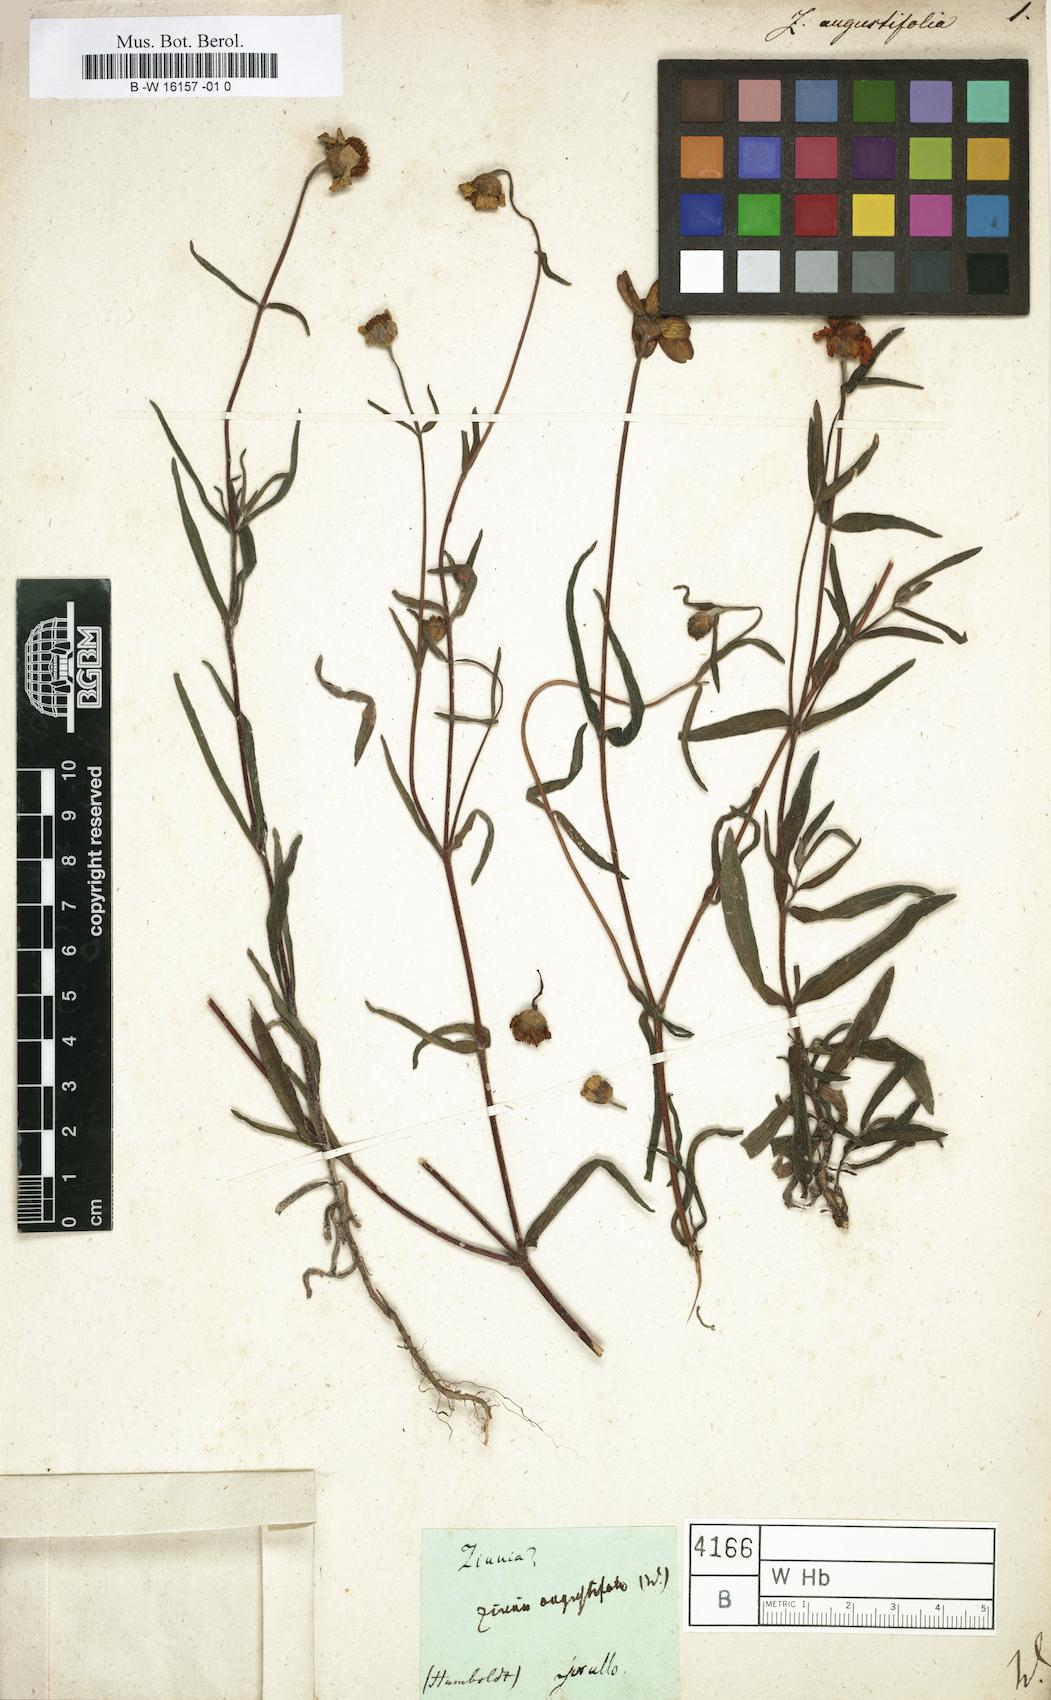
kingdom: Plantae
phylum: Tracheophyta
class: Magnoliopsida
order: Asterales
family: Asteraceae
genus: Zinnia
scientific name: Zinnia angustifolia
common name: Narrowleaf zinnia
